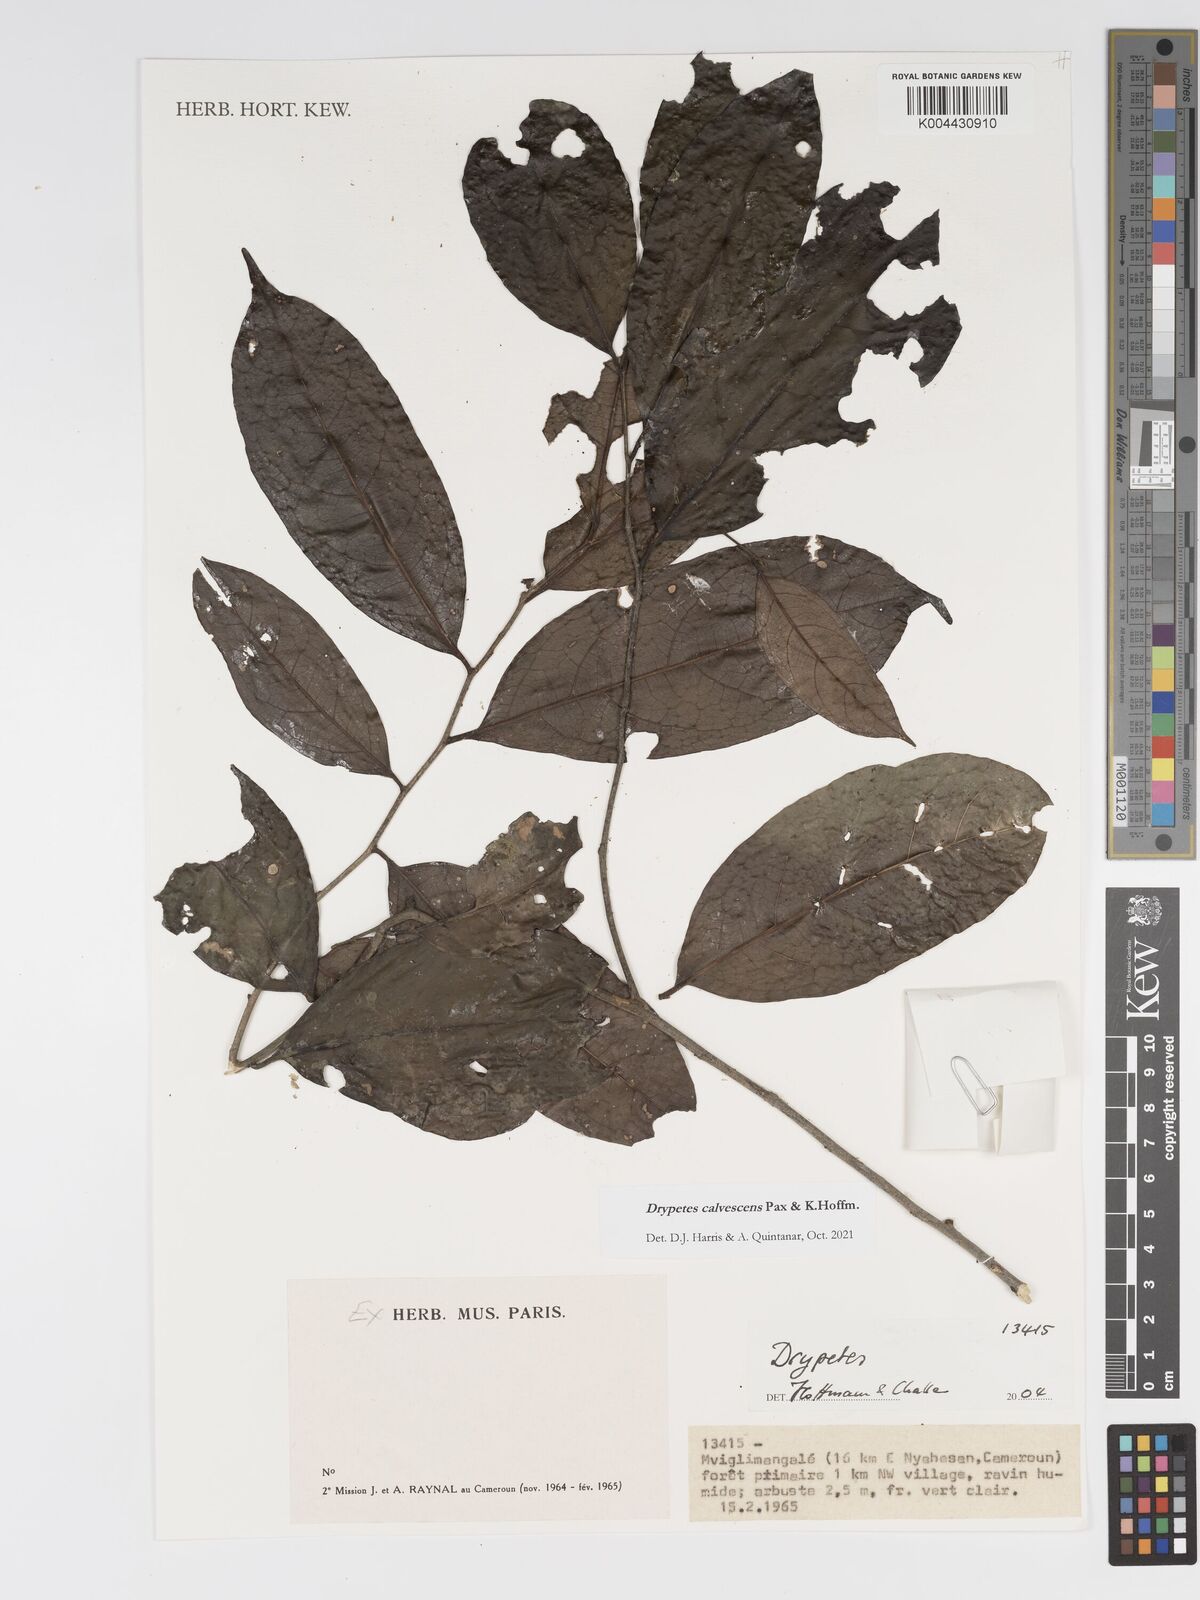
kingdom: Plantae
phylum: Tracheophyta
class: Magnoliopsida
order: Malpighiales
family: Putranjivaceae
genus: Drypetes
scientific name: Drypetes calvescens
